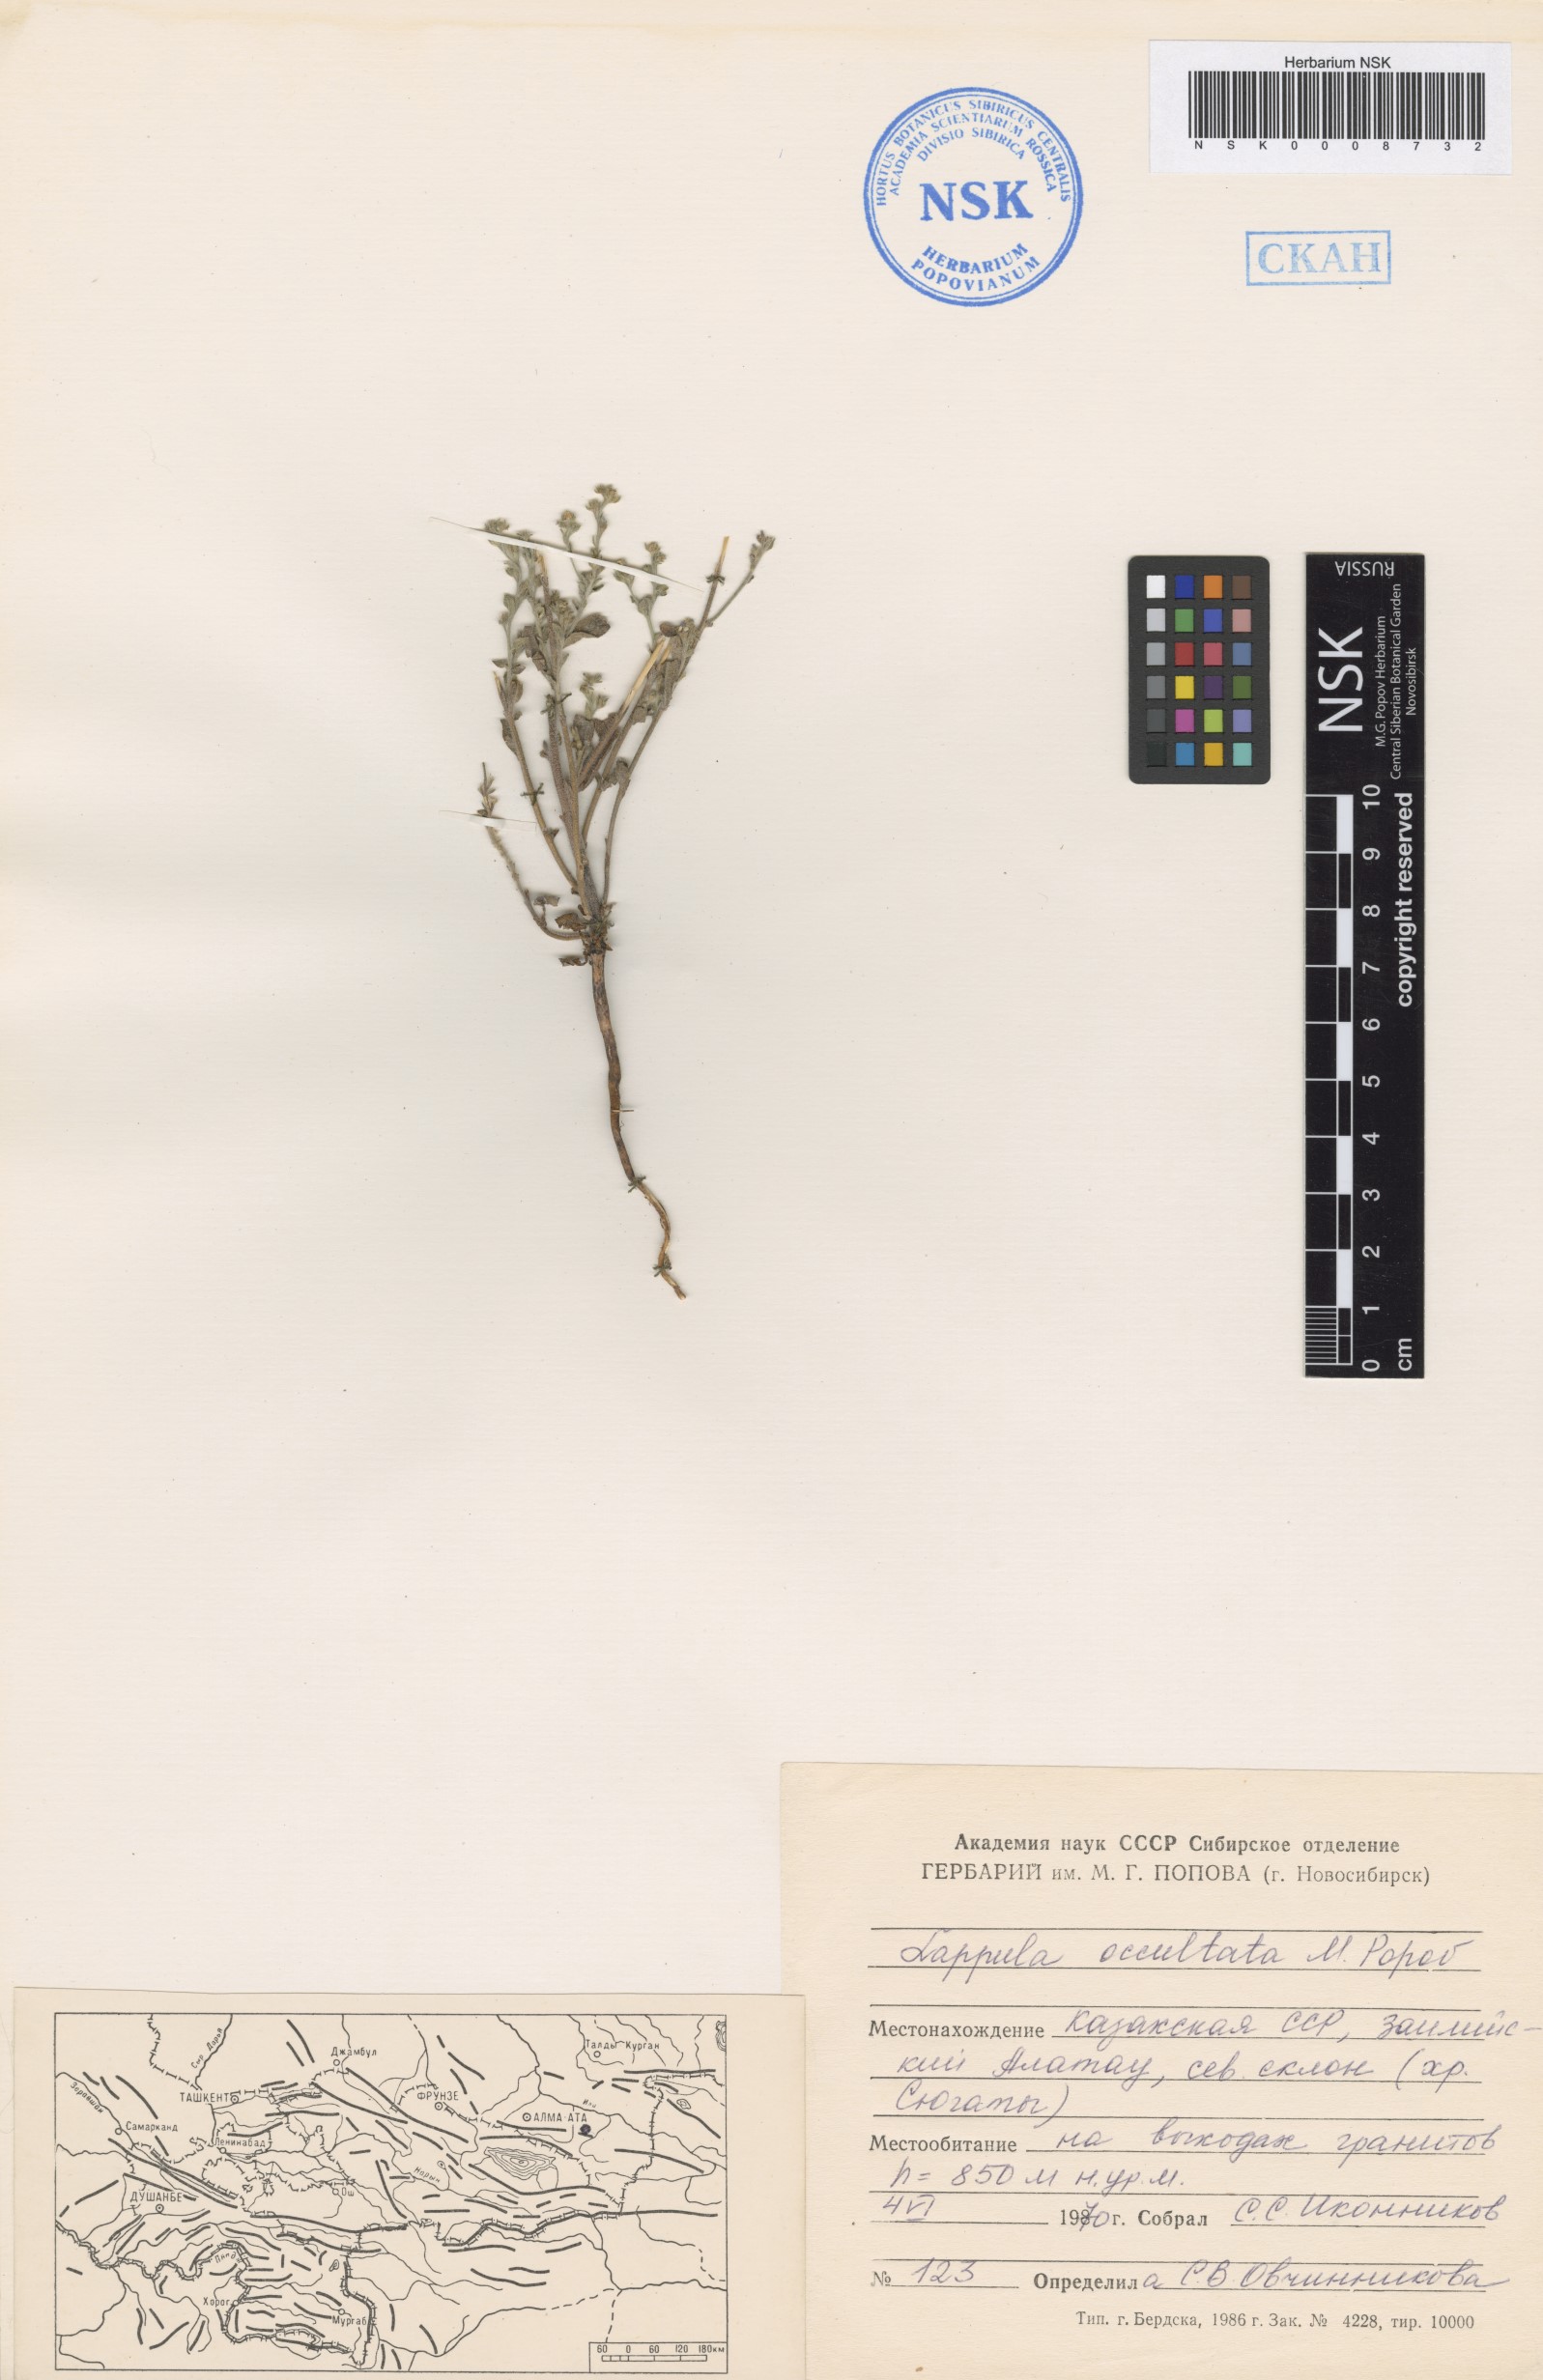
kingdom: Plantae
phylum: Tracheophyta
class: Magnoliopsida
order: Boraginales
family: Boraginaceae
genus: Lappula
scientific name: Lappula occultata
